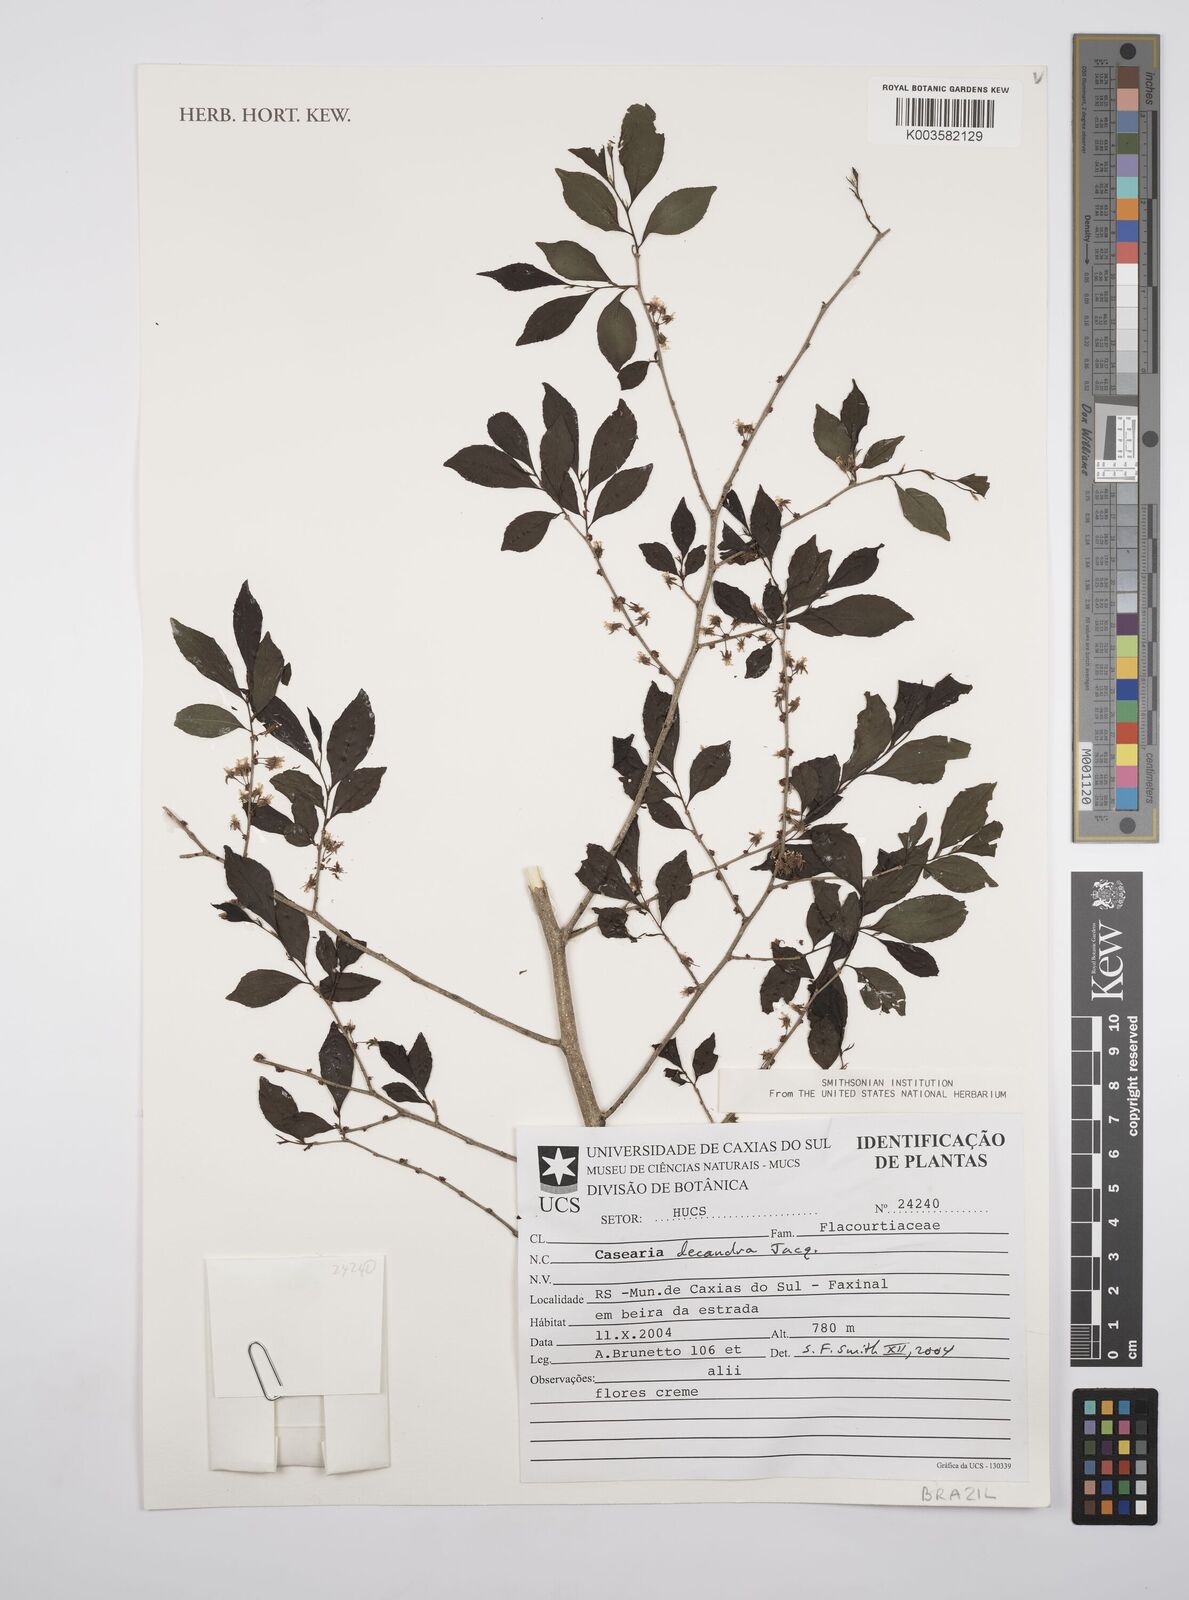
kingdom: Plantae
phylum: Tracheophyta
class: Magnoliopsida
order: Malpighiales
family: Salicaceae
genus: Casearia
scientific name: Casearia
